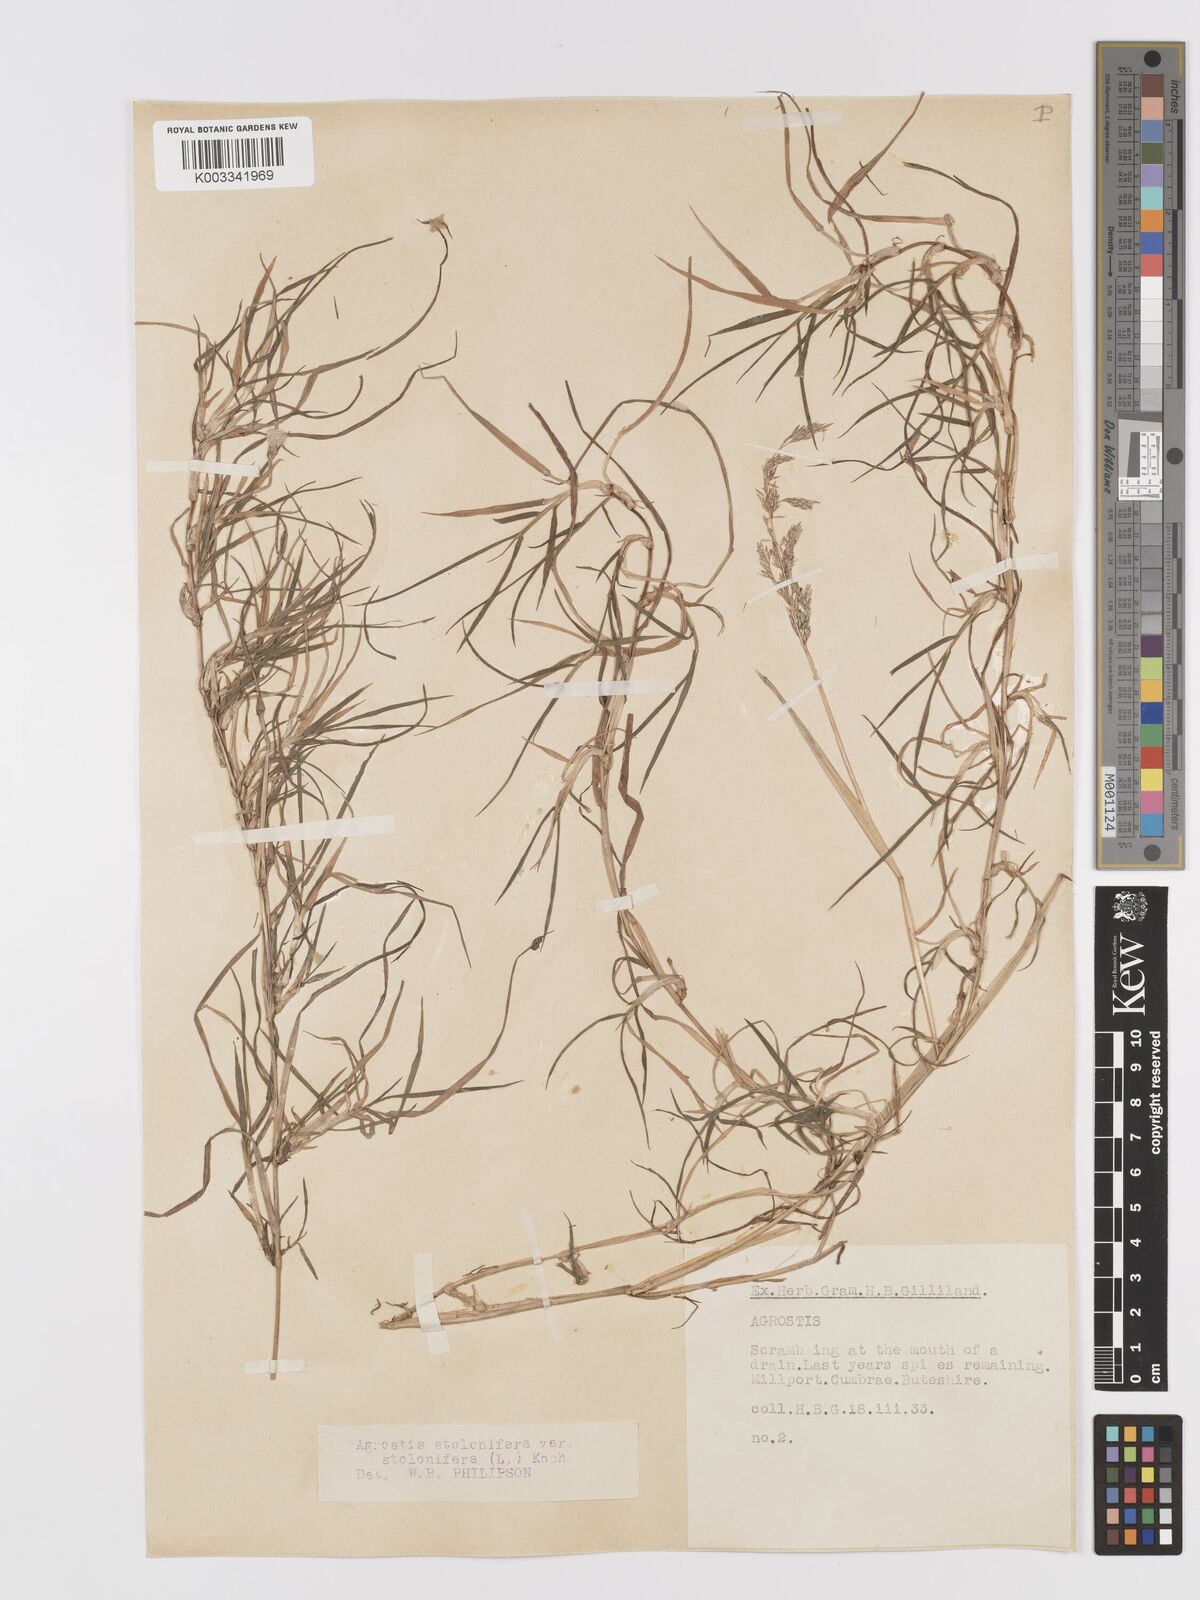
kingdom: Plantae
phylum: Tracheophyta
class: Liliopsida
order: Poales
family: Poaceae
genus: Agrostis
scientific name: Agrostis stolonifera
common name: Creeping bentgrass
